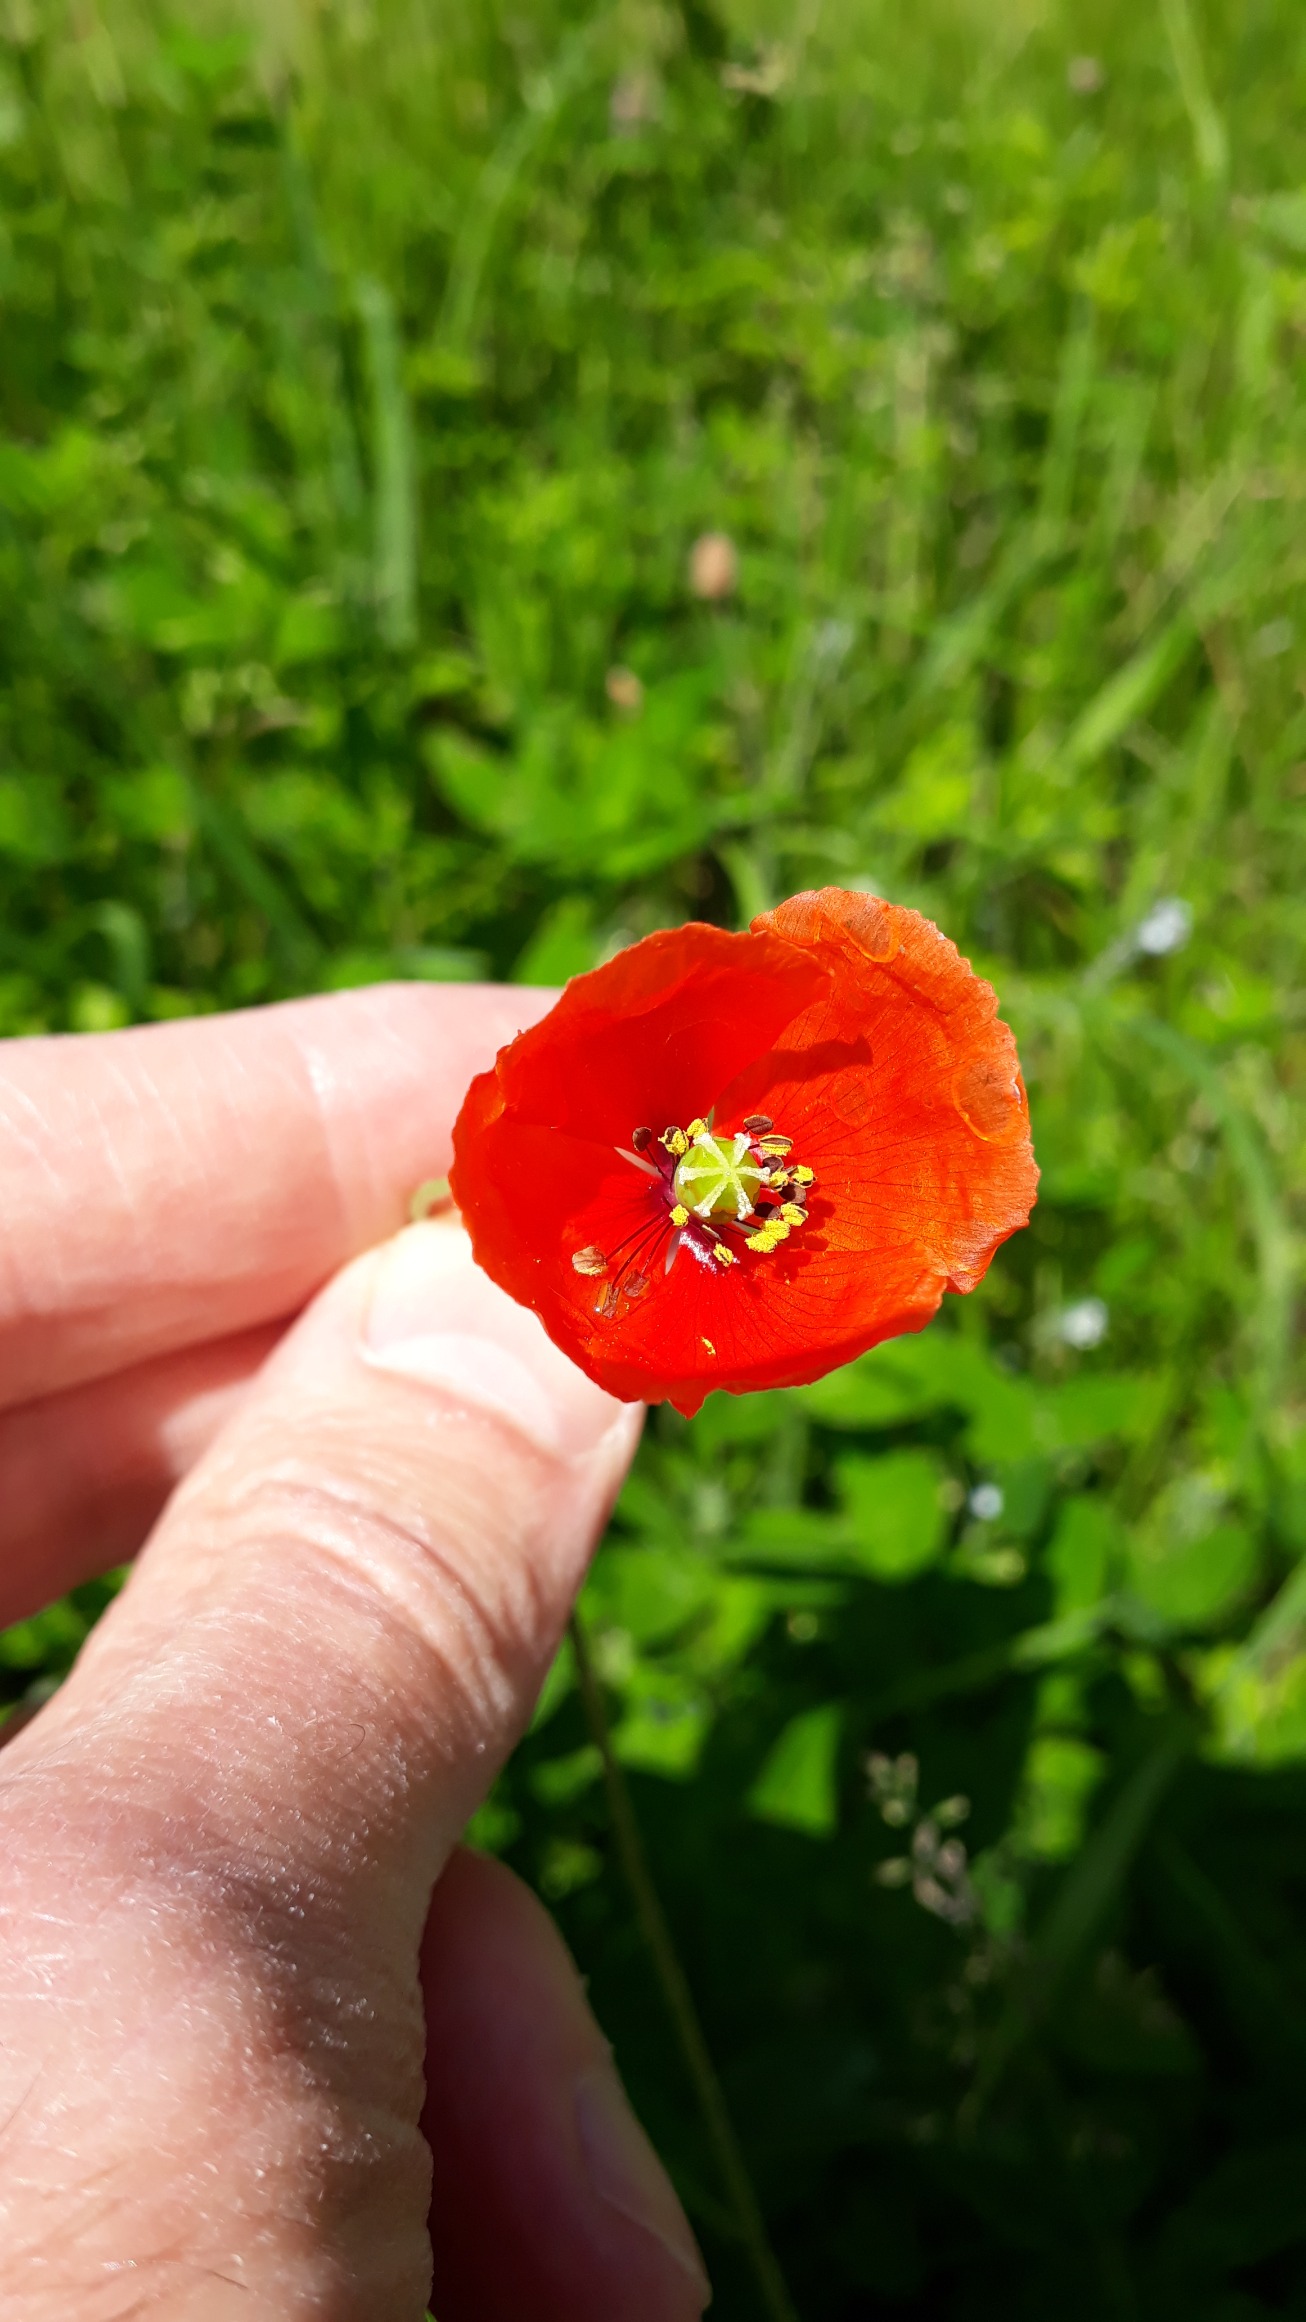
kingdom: Plantae
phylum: Tracheophyta
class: Magnoliopsida
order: Ranunculales
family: Papaveraceae
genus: Papaver
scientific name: Papaver dubium
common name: Gærde-valmue
